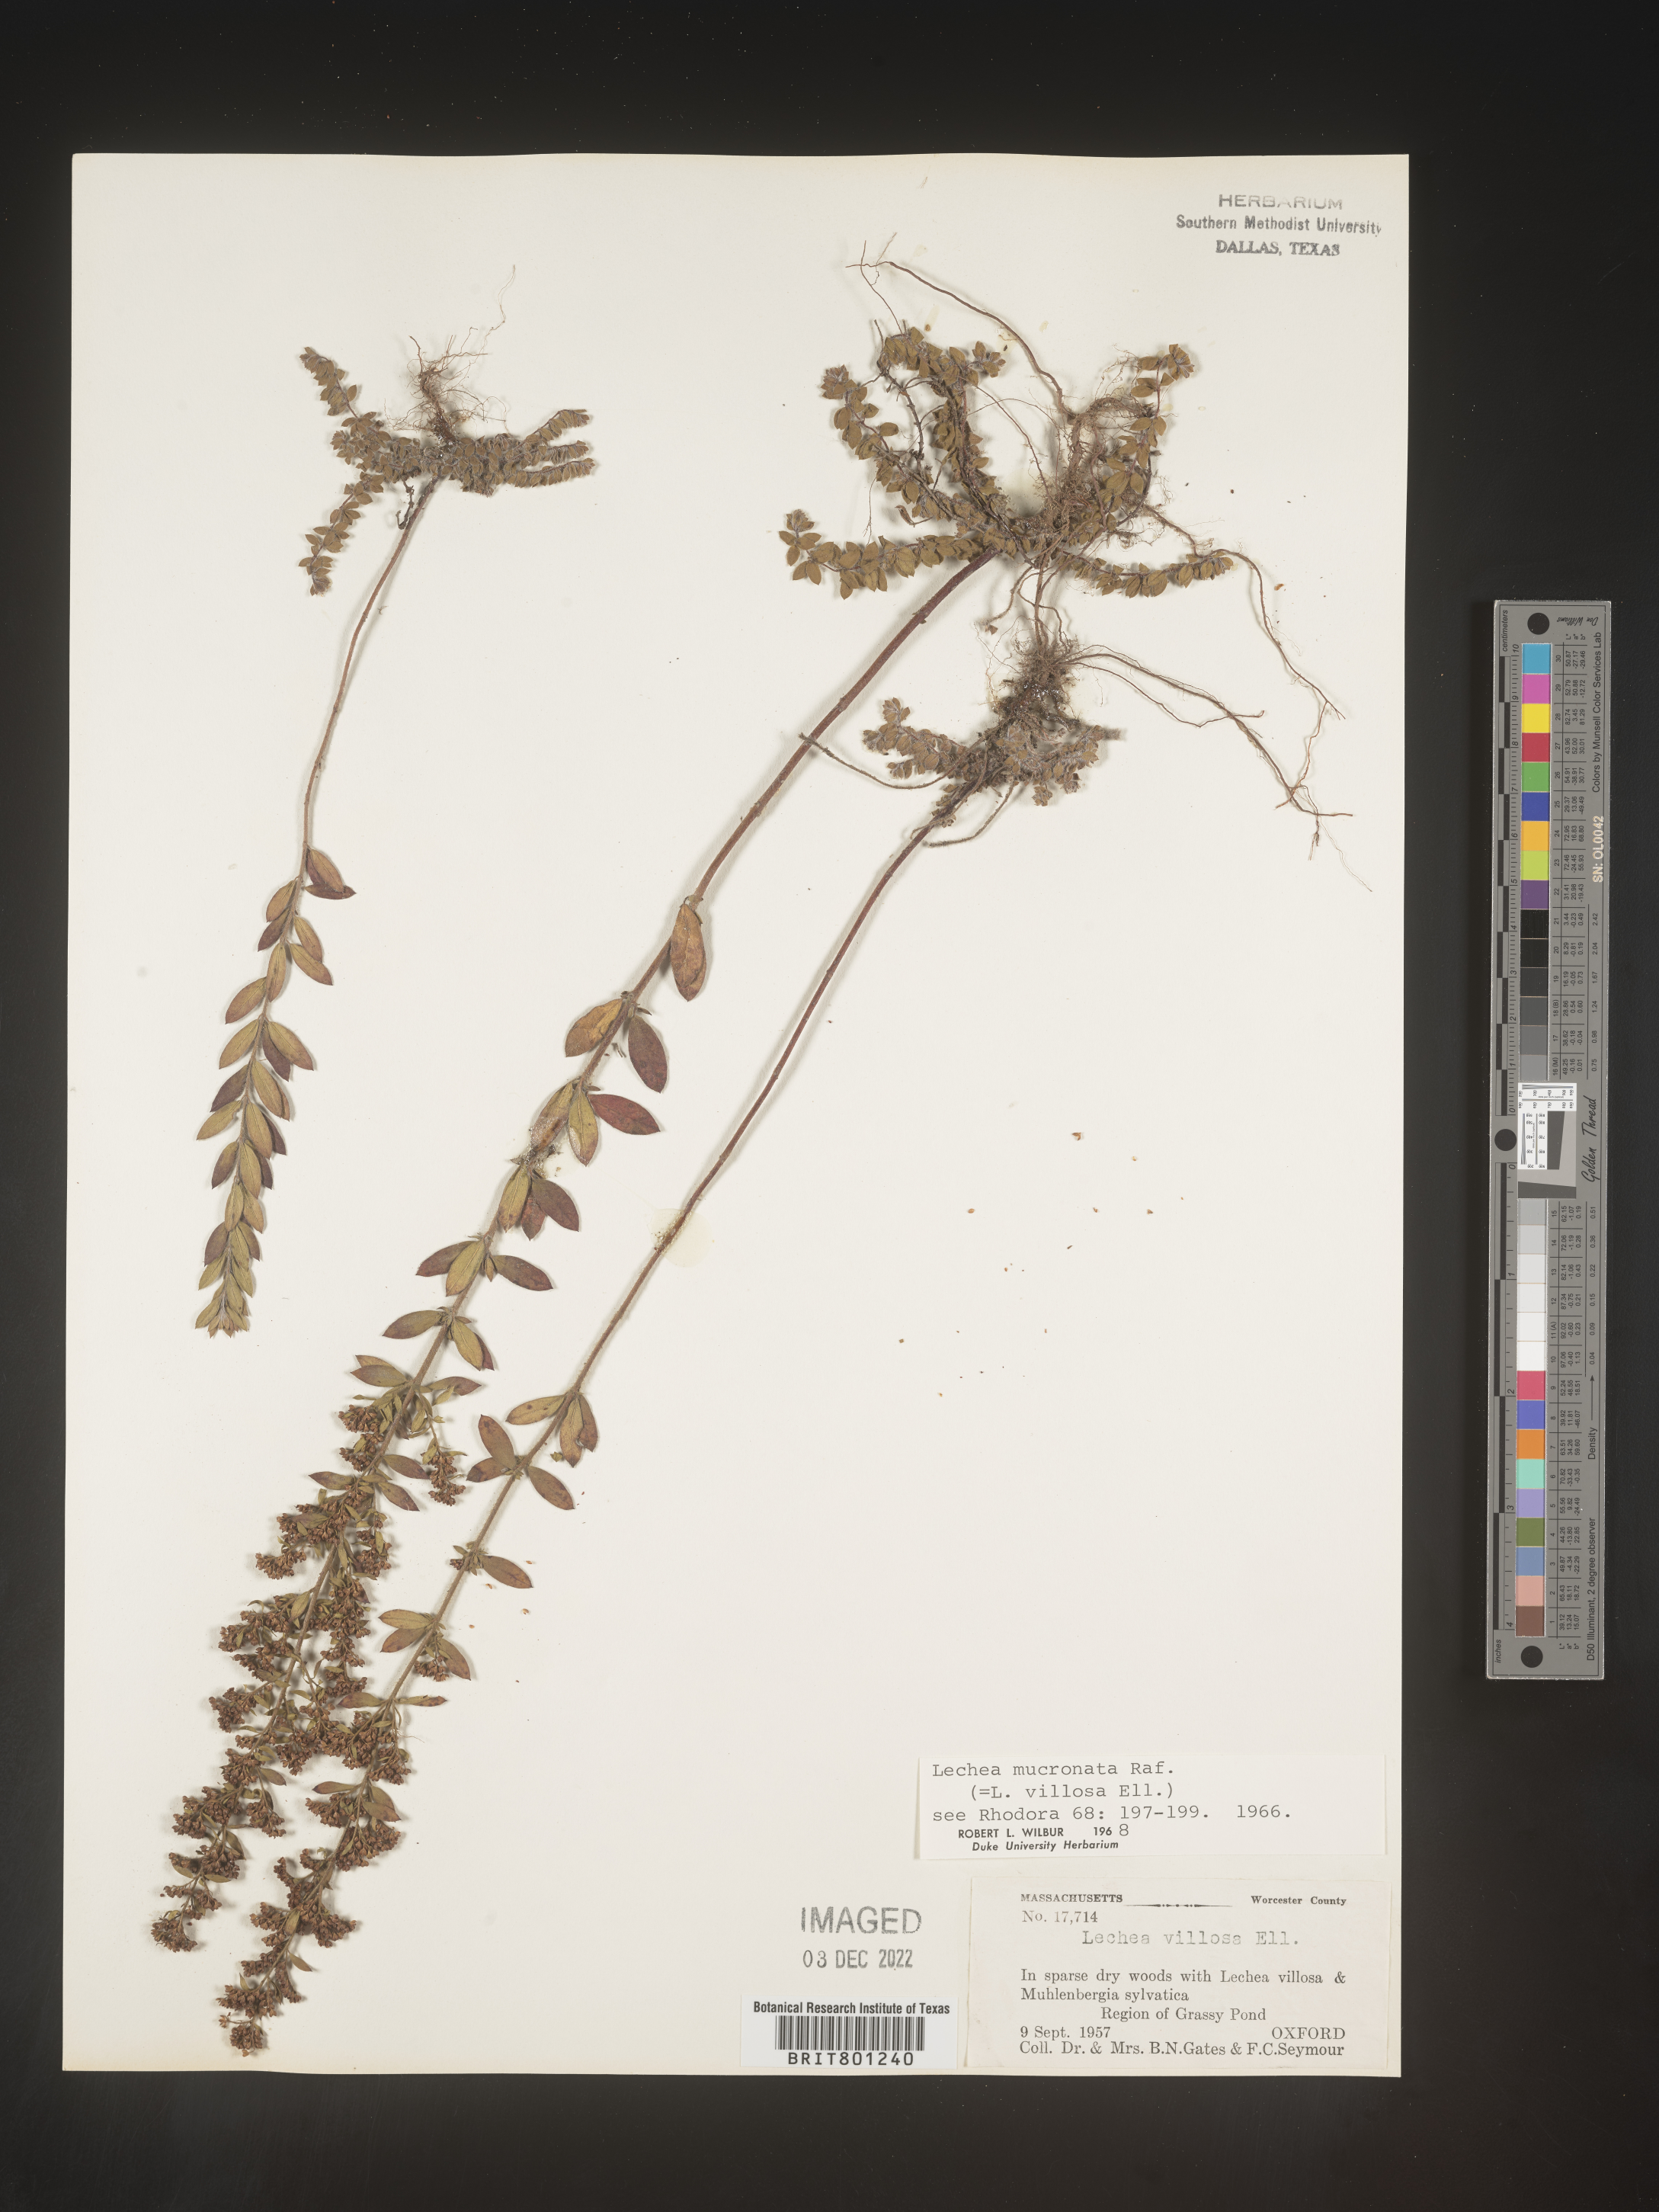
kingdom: Plantae
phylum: Tracheophyta
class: Magnoliopsida
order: Malvales
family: Cistaceae
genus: Lechea
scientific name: Lechea mucronata
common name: Hairy pinweed
